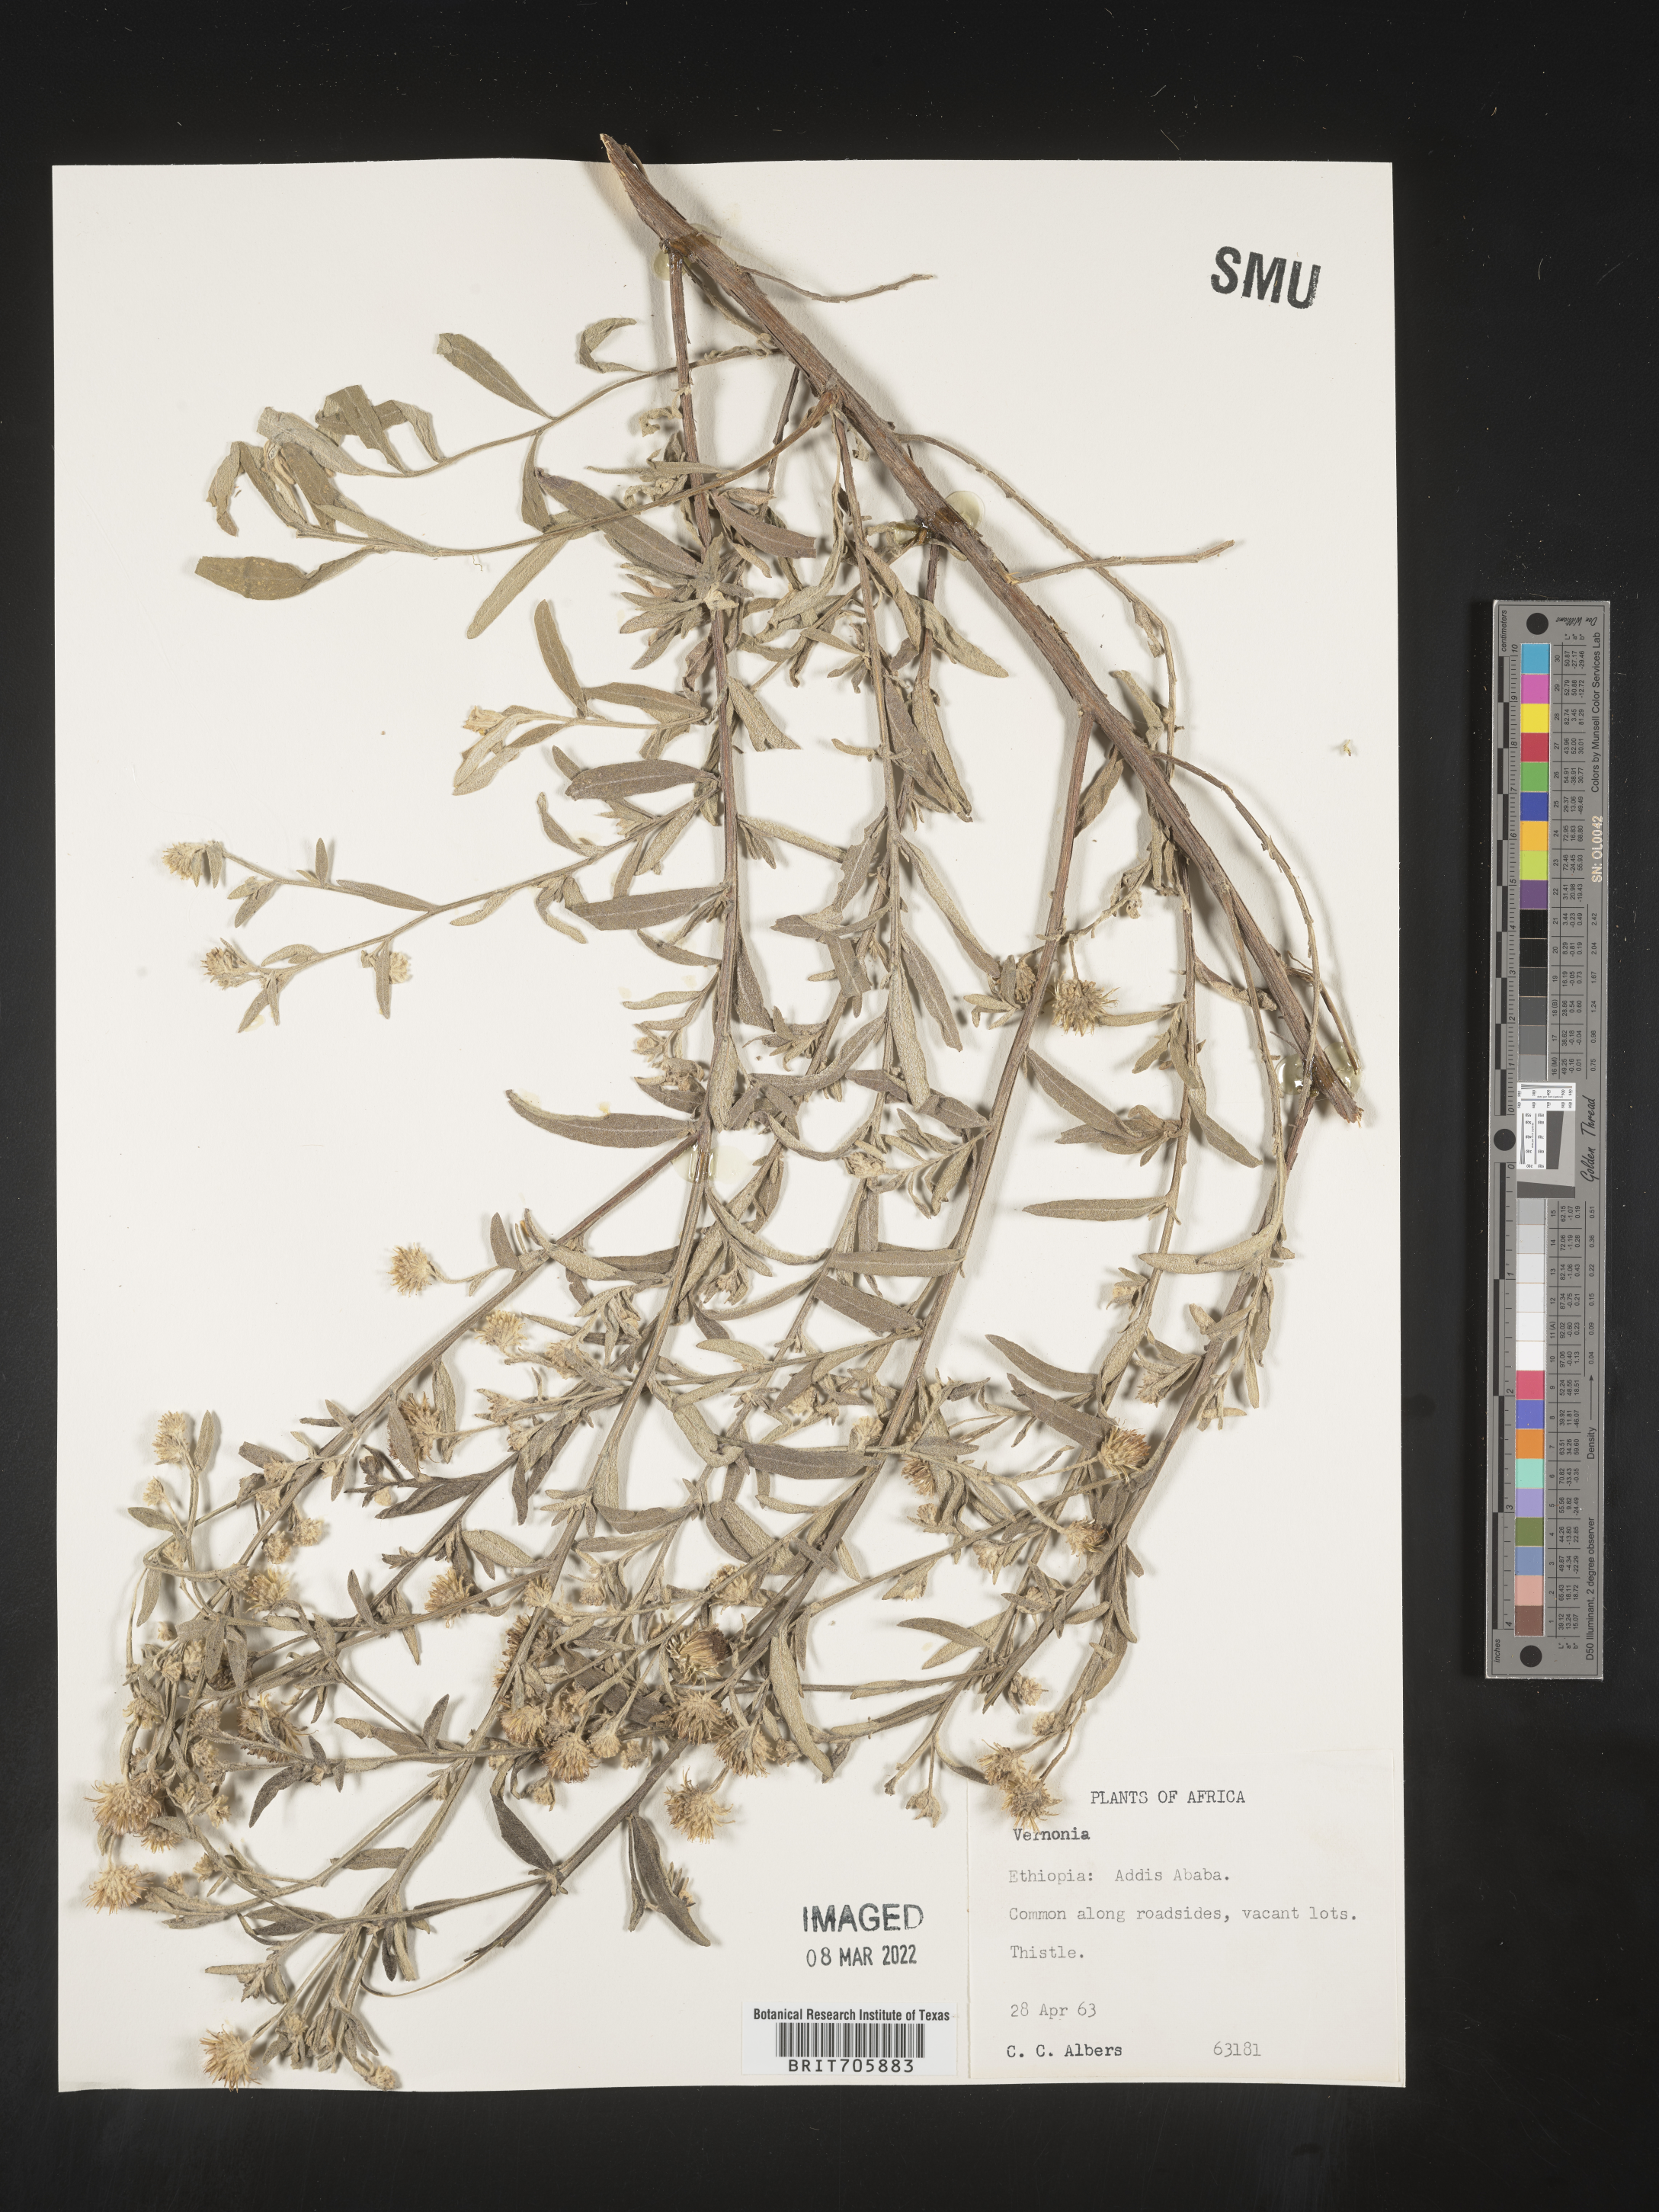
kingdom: Plantae
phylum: Tracheophyta
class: Magnoliopsida
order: Asterales
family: Asteraceae
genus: Vernonia
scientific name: Vernonia
